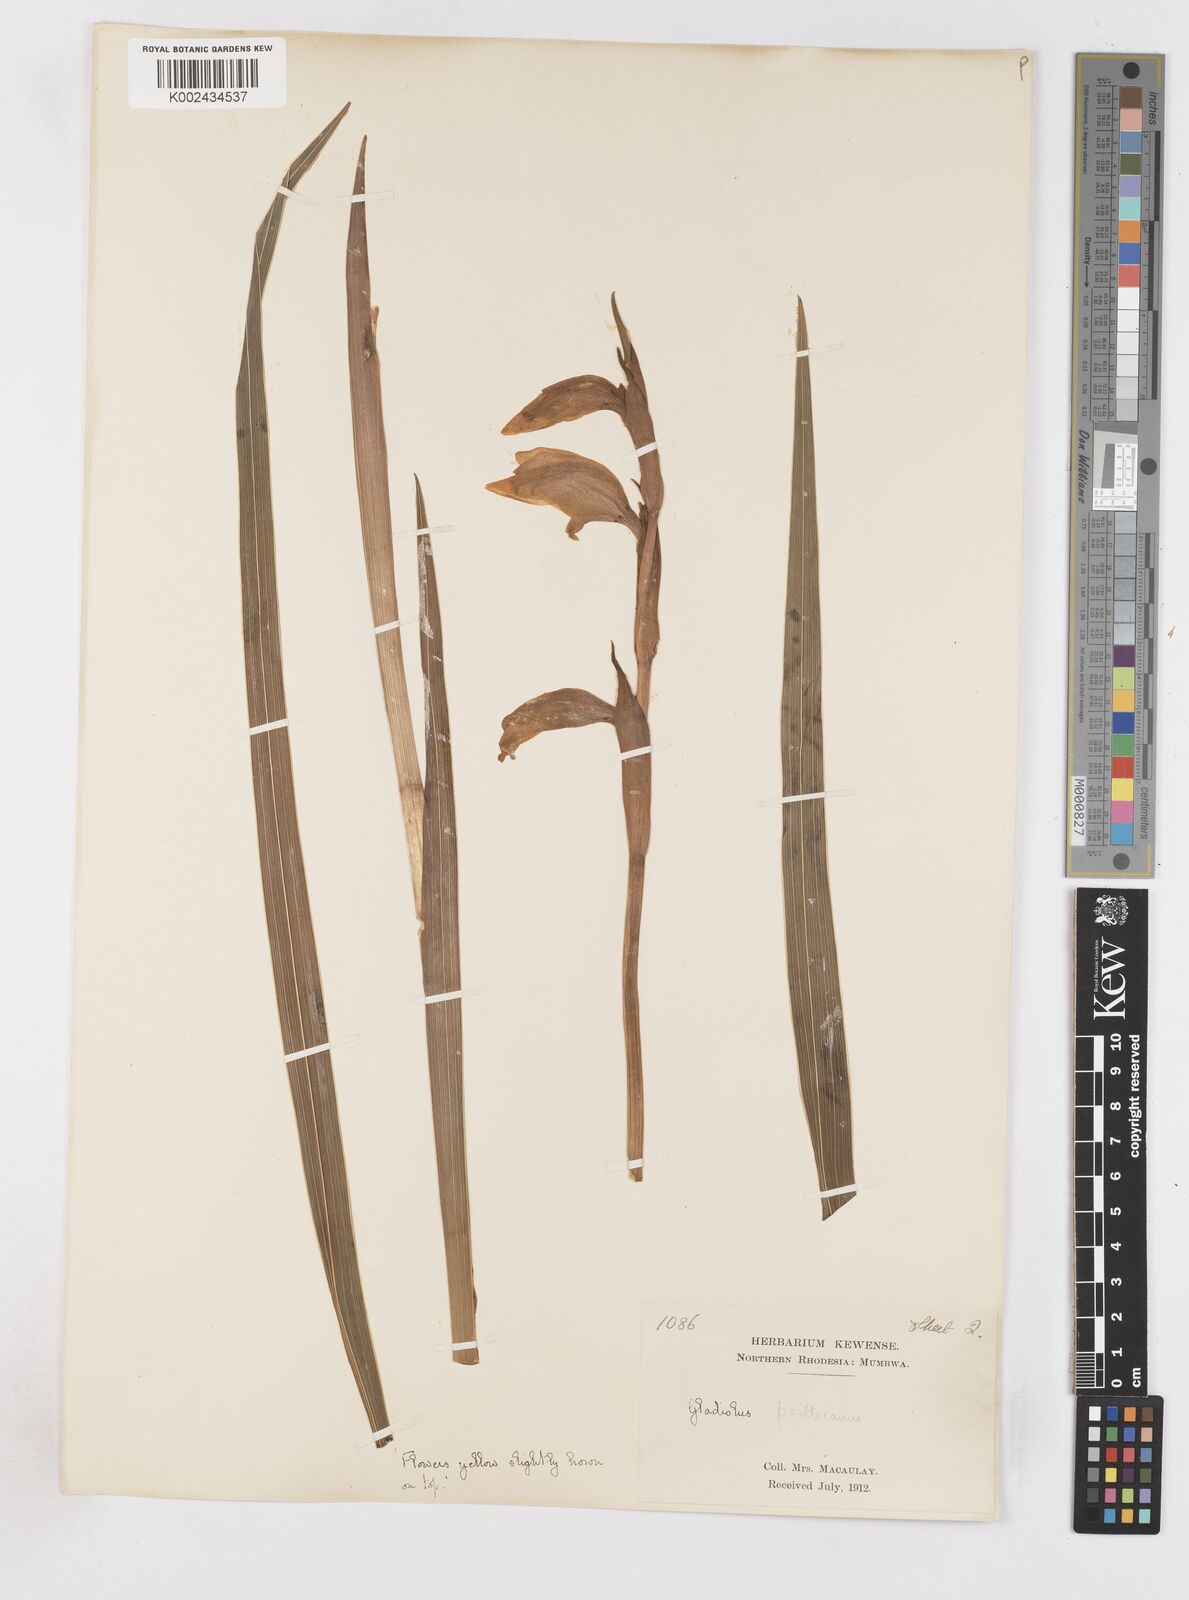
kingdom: Plantae
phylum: Tracheophyta
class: Liliopsida
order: Asparagales
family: Iridaceae
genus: Gladiolus
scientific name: Gladiolus dalenii
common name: Cornflag
